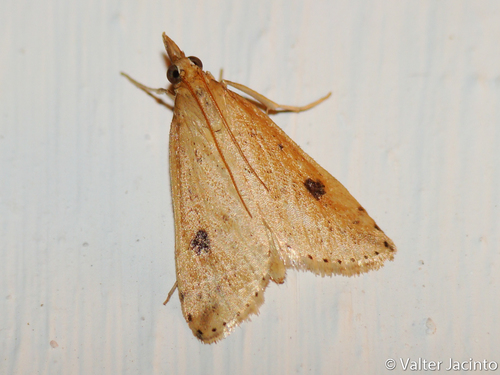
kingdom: Animalia
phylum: Arthropoda
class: Insecta
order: Lepidoptera
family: Crambidae
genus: Udea
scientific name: Udea numeralis
